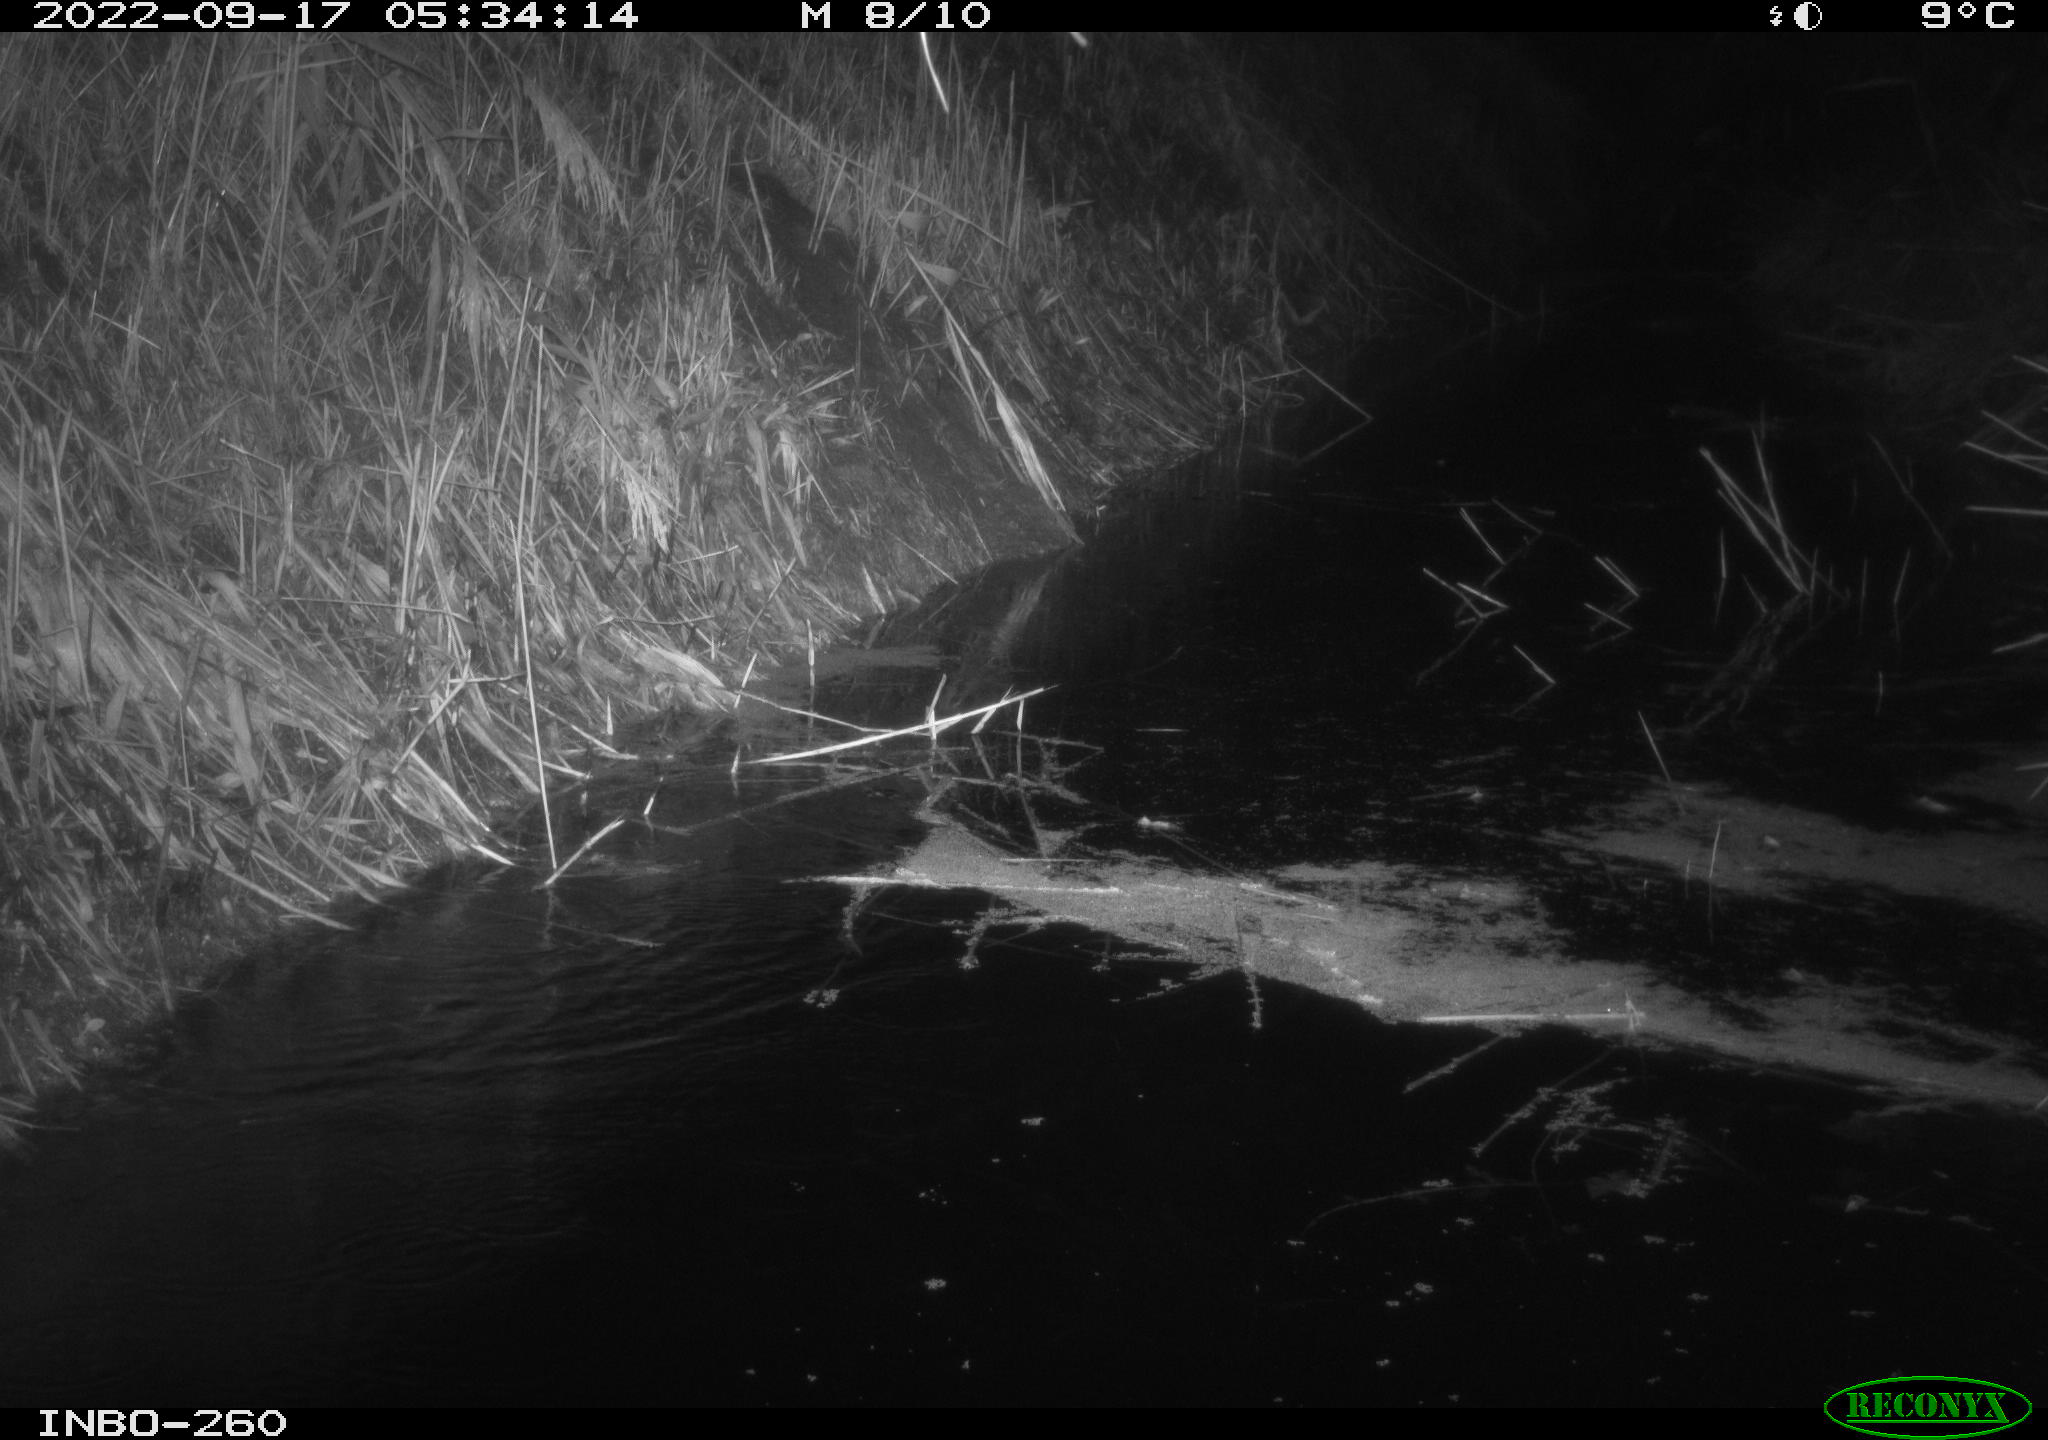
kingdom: Animalia
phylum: Chordata
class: Mammalia
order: Rodentia
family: Muridae
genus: Rattus
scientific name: Rattus norvegicus
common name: Brown rat
